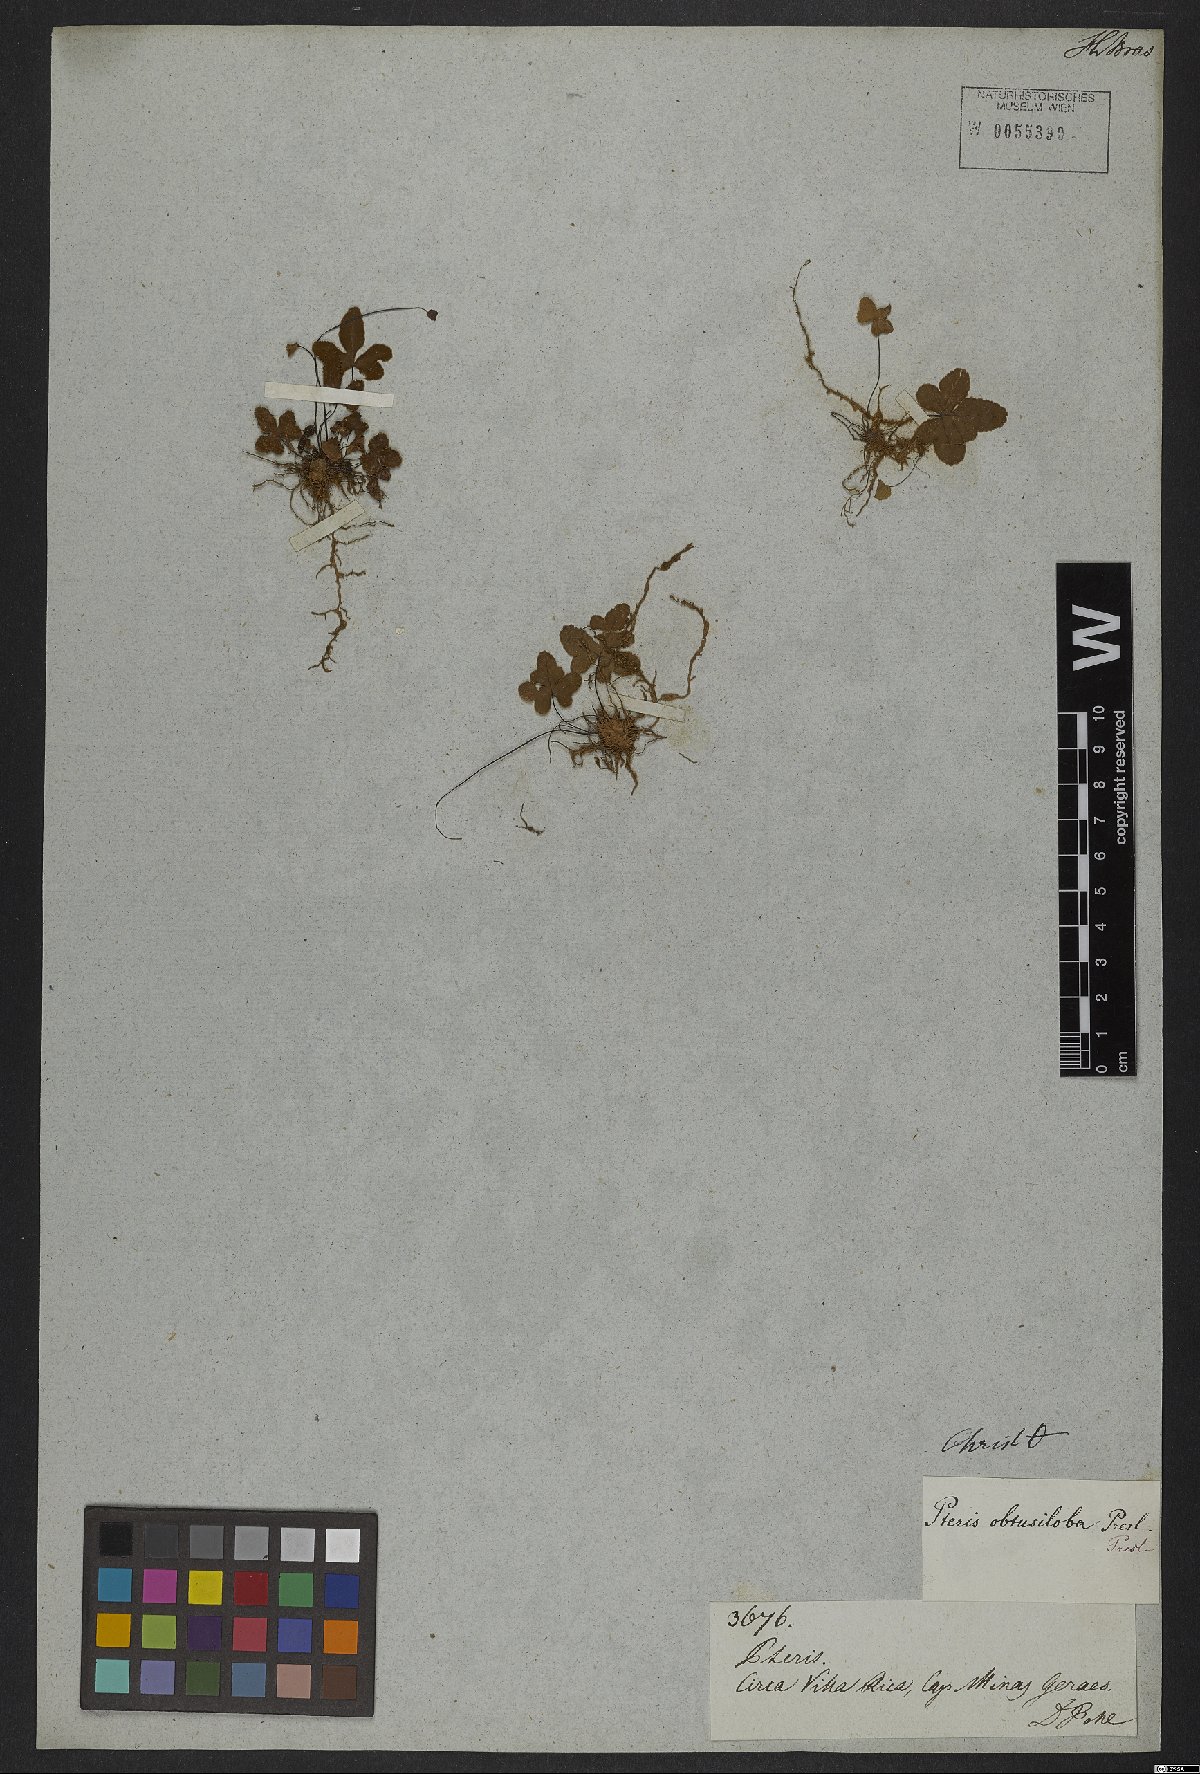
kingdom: Plantae
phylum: Tracheophyta
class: Polypodiopsida
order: Polypodiales
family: Pteridaceae
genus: Doryopteris
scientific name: Doryopteris
